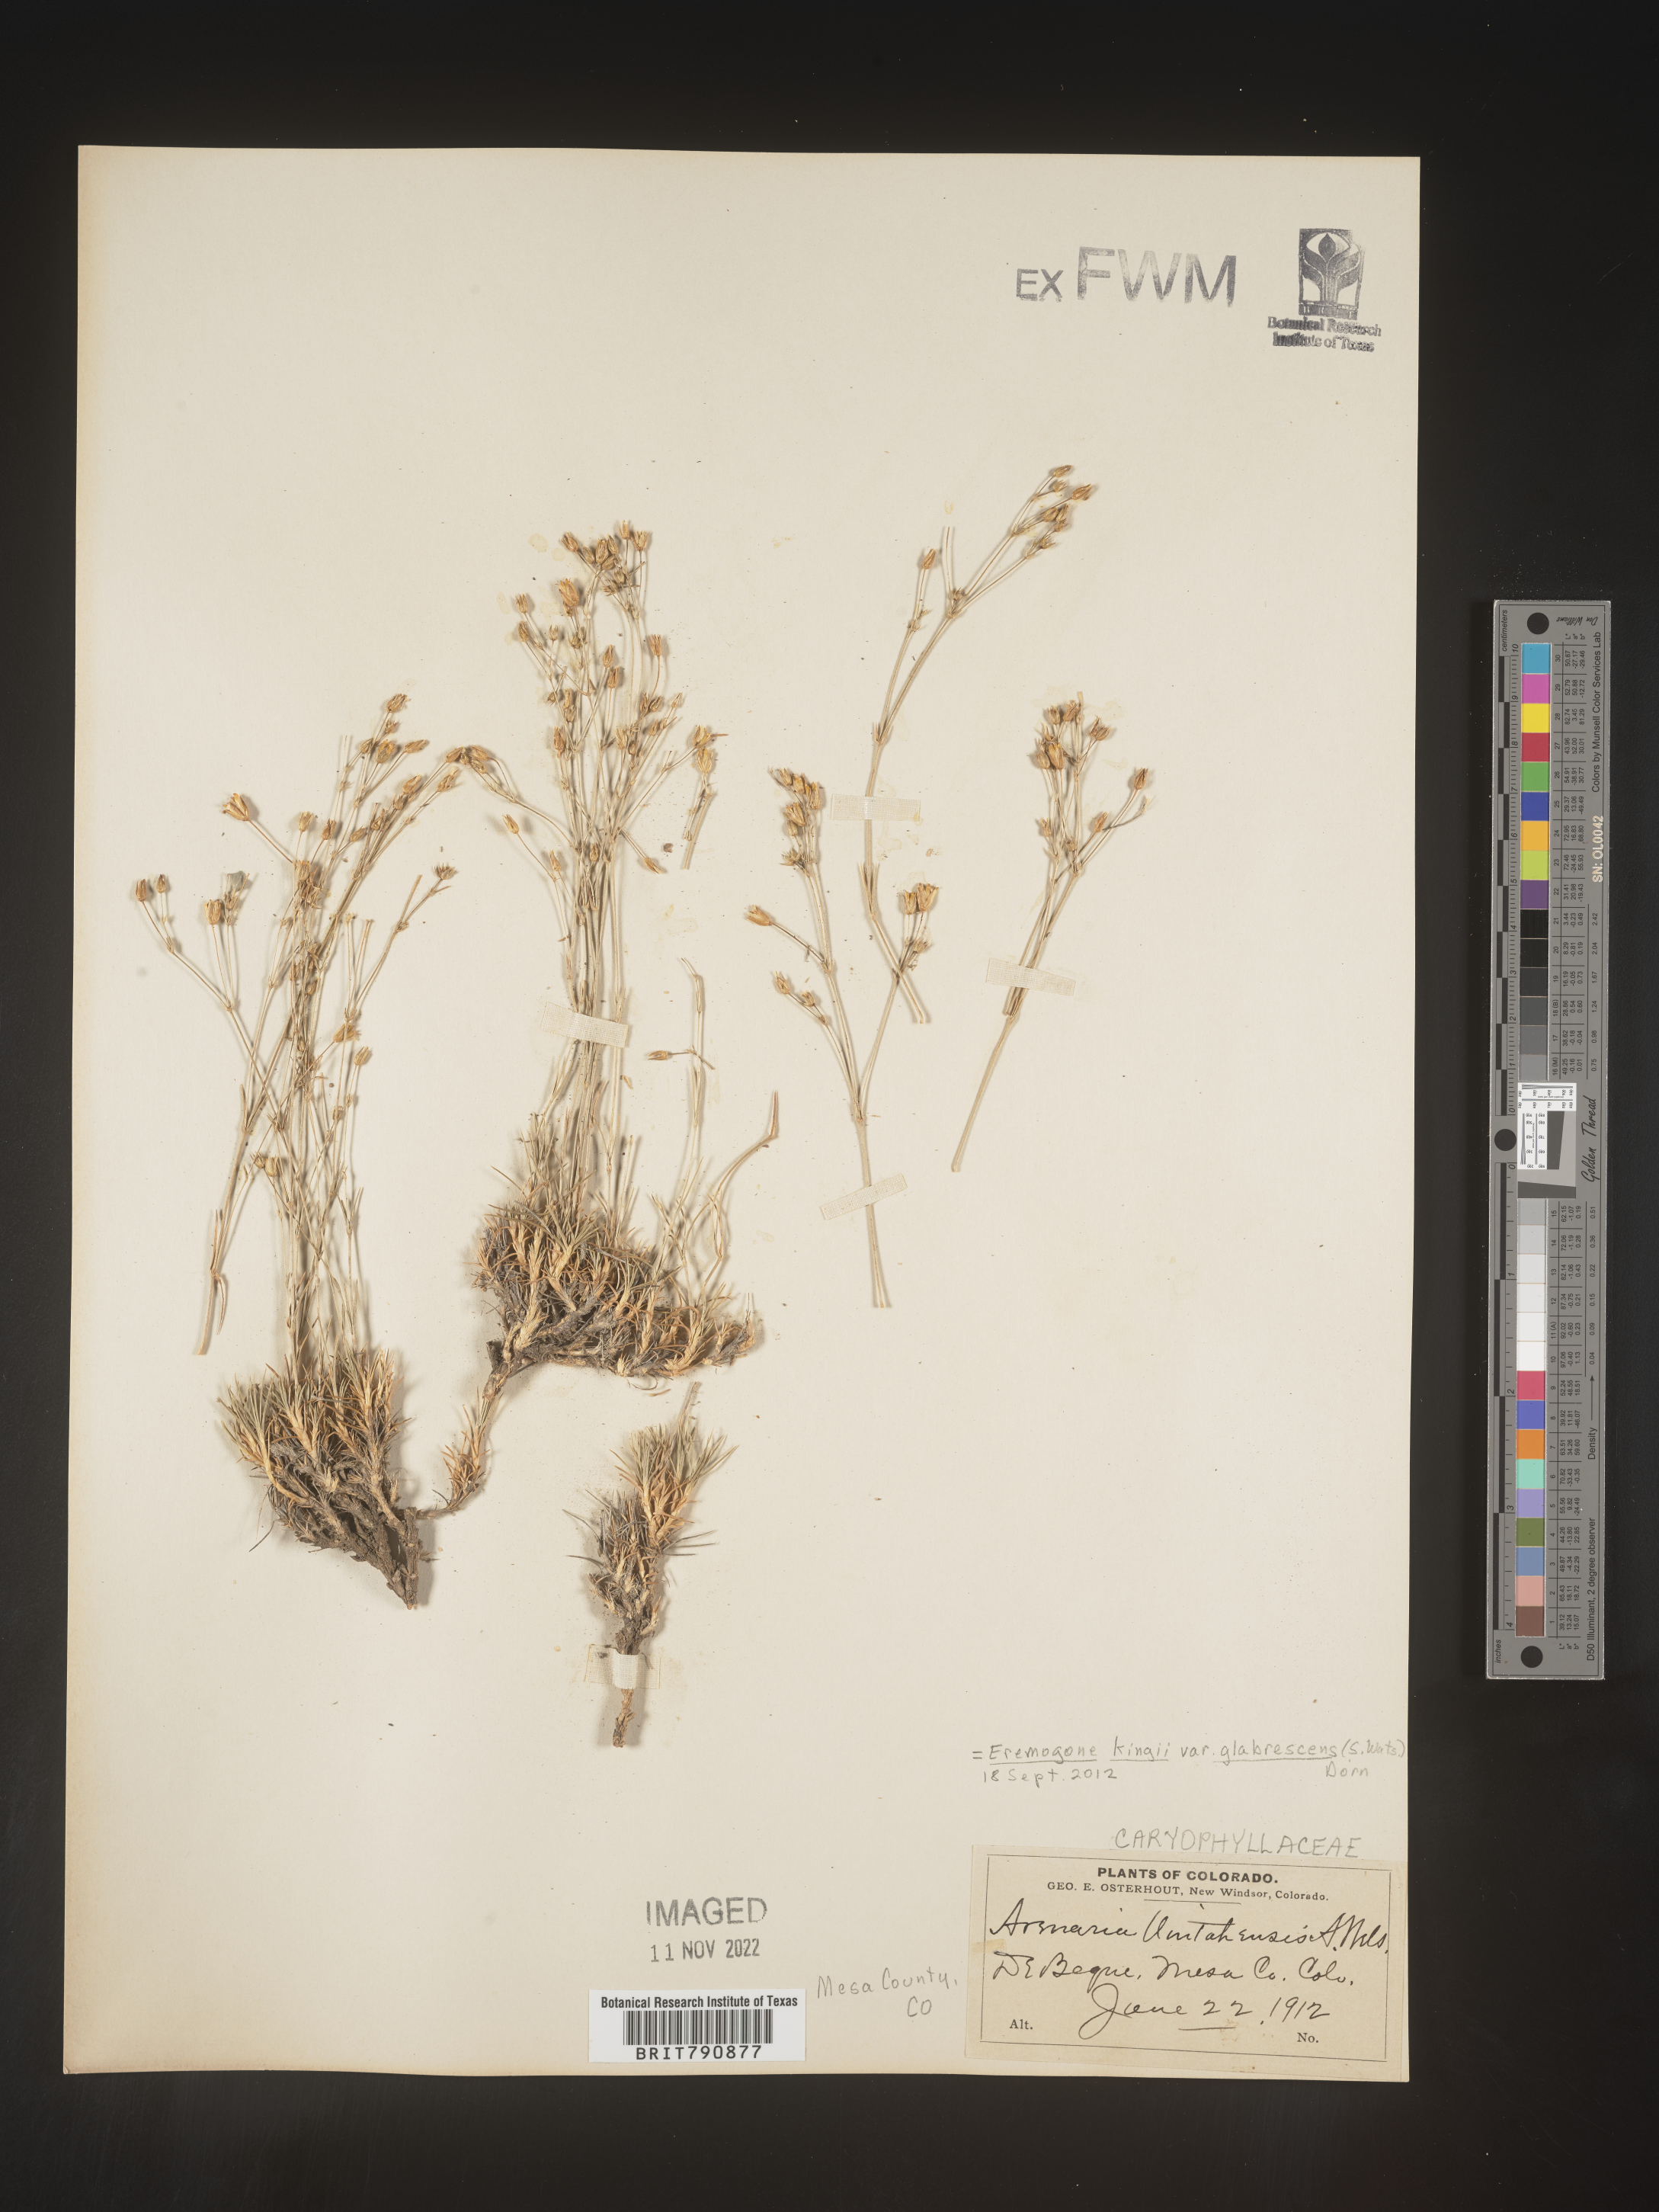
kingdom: Plantae
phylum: Tracheophyta
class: Magnoliopsida
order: Caryophyllales
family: Caryophyllaceae
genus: Eremogone
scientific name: Eremogone
